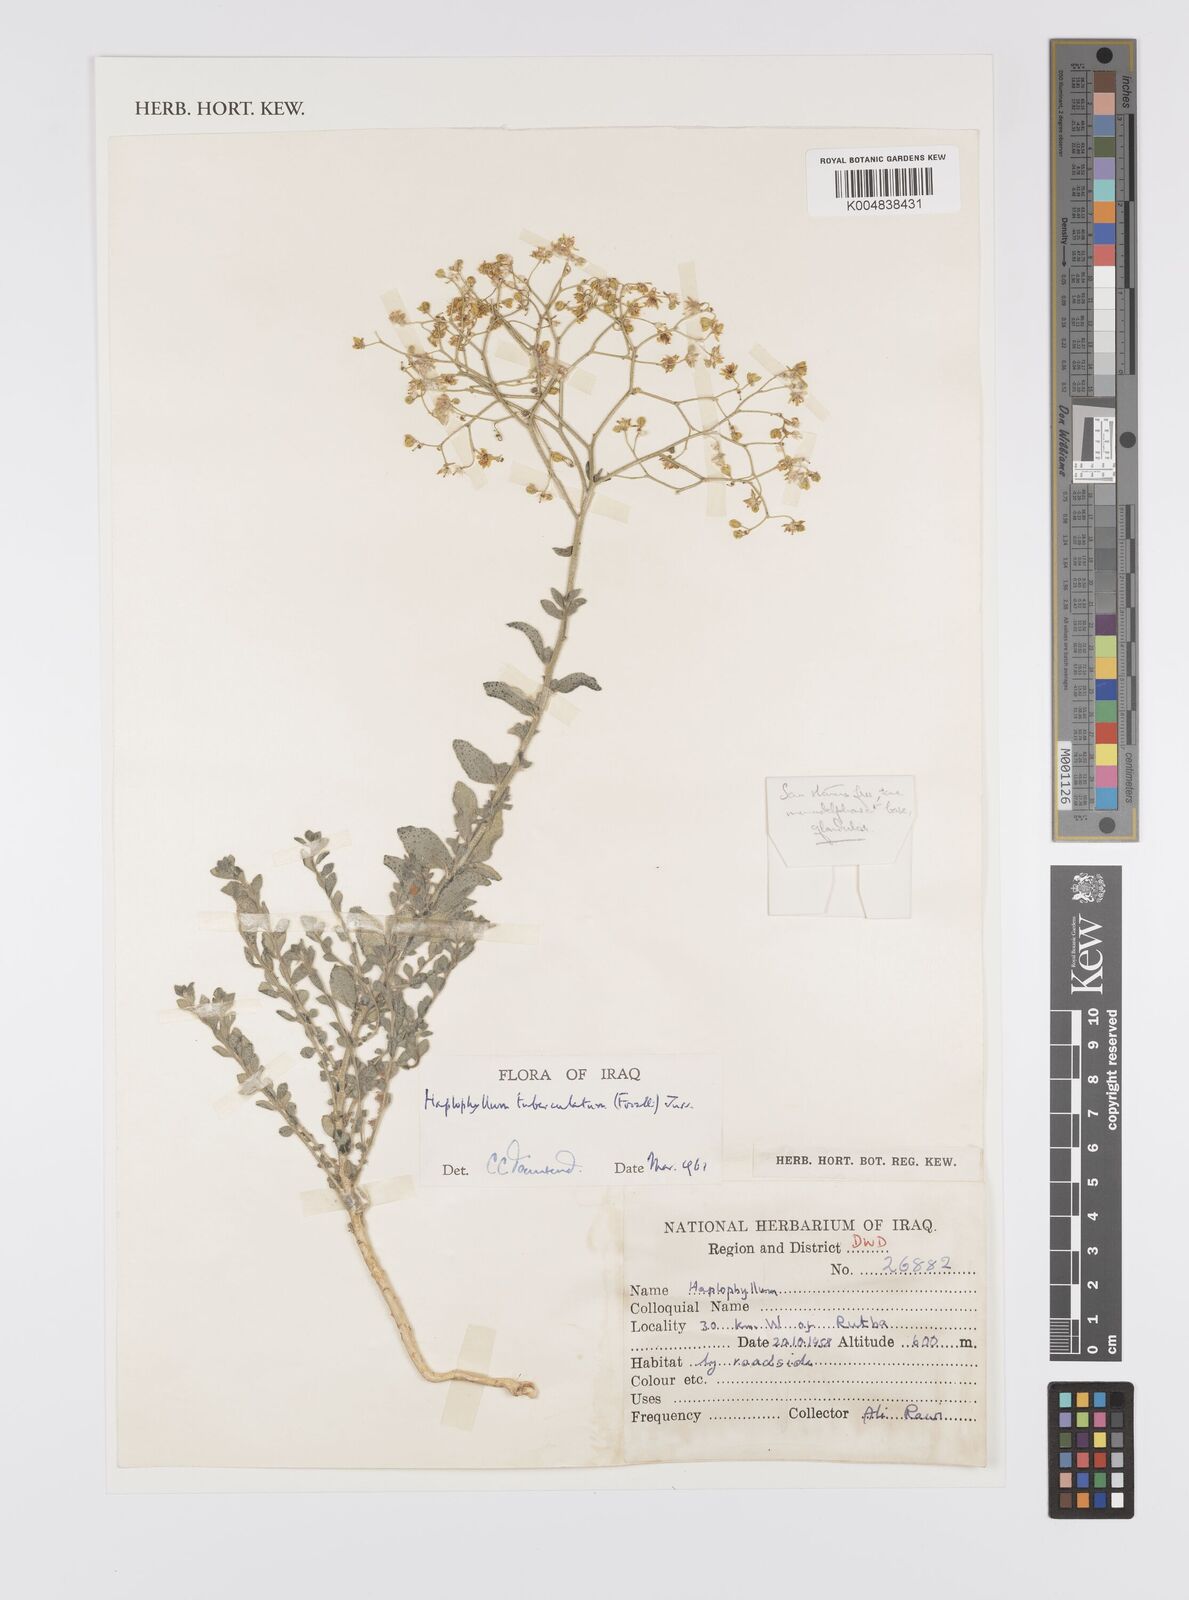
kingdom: Plantae
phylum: Tracheophyta
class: Magnoliopsida
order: Sapindales
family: Rutaceae
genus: Haplophyllum
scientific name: Haplophyllum tuberculatum
